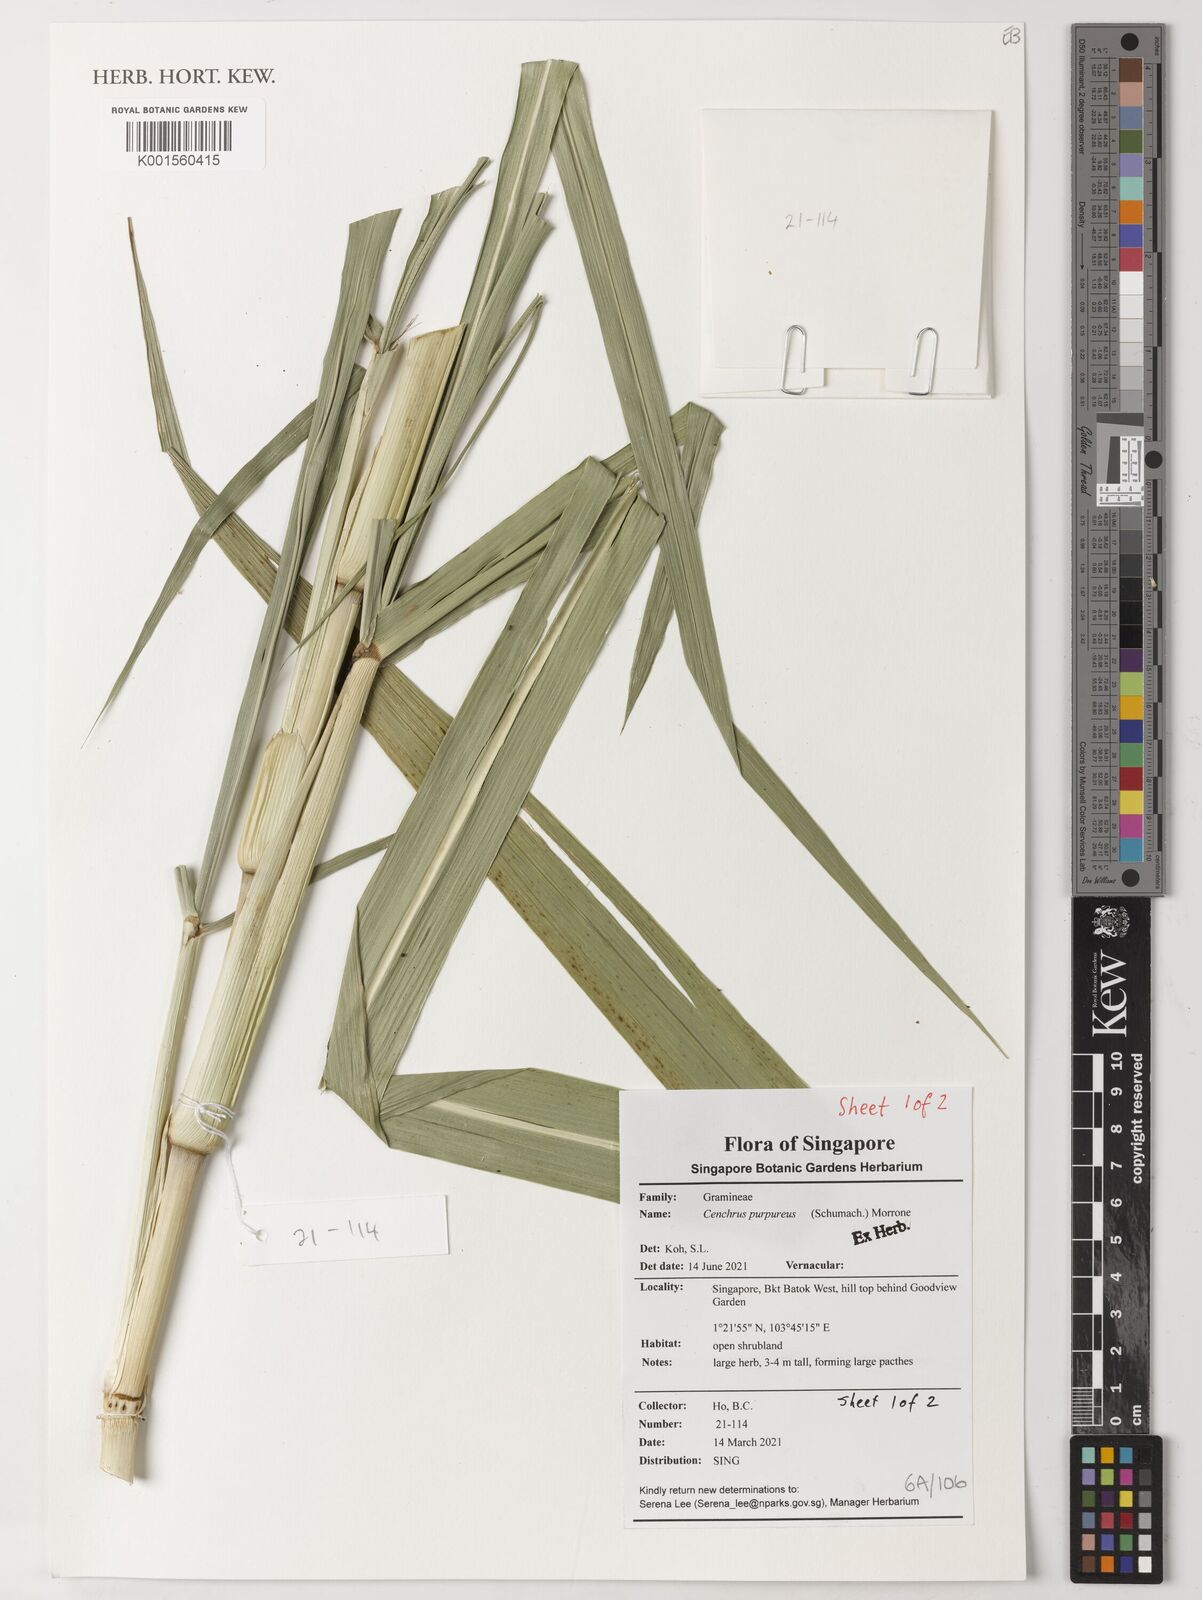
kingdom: Plantae
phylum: Tracheophyta
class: Liliopsida
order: Poales
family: Poaceae
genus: Cenchrus
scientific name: Cenchrus purpureus
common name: Elephant grass
